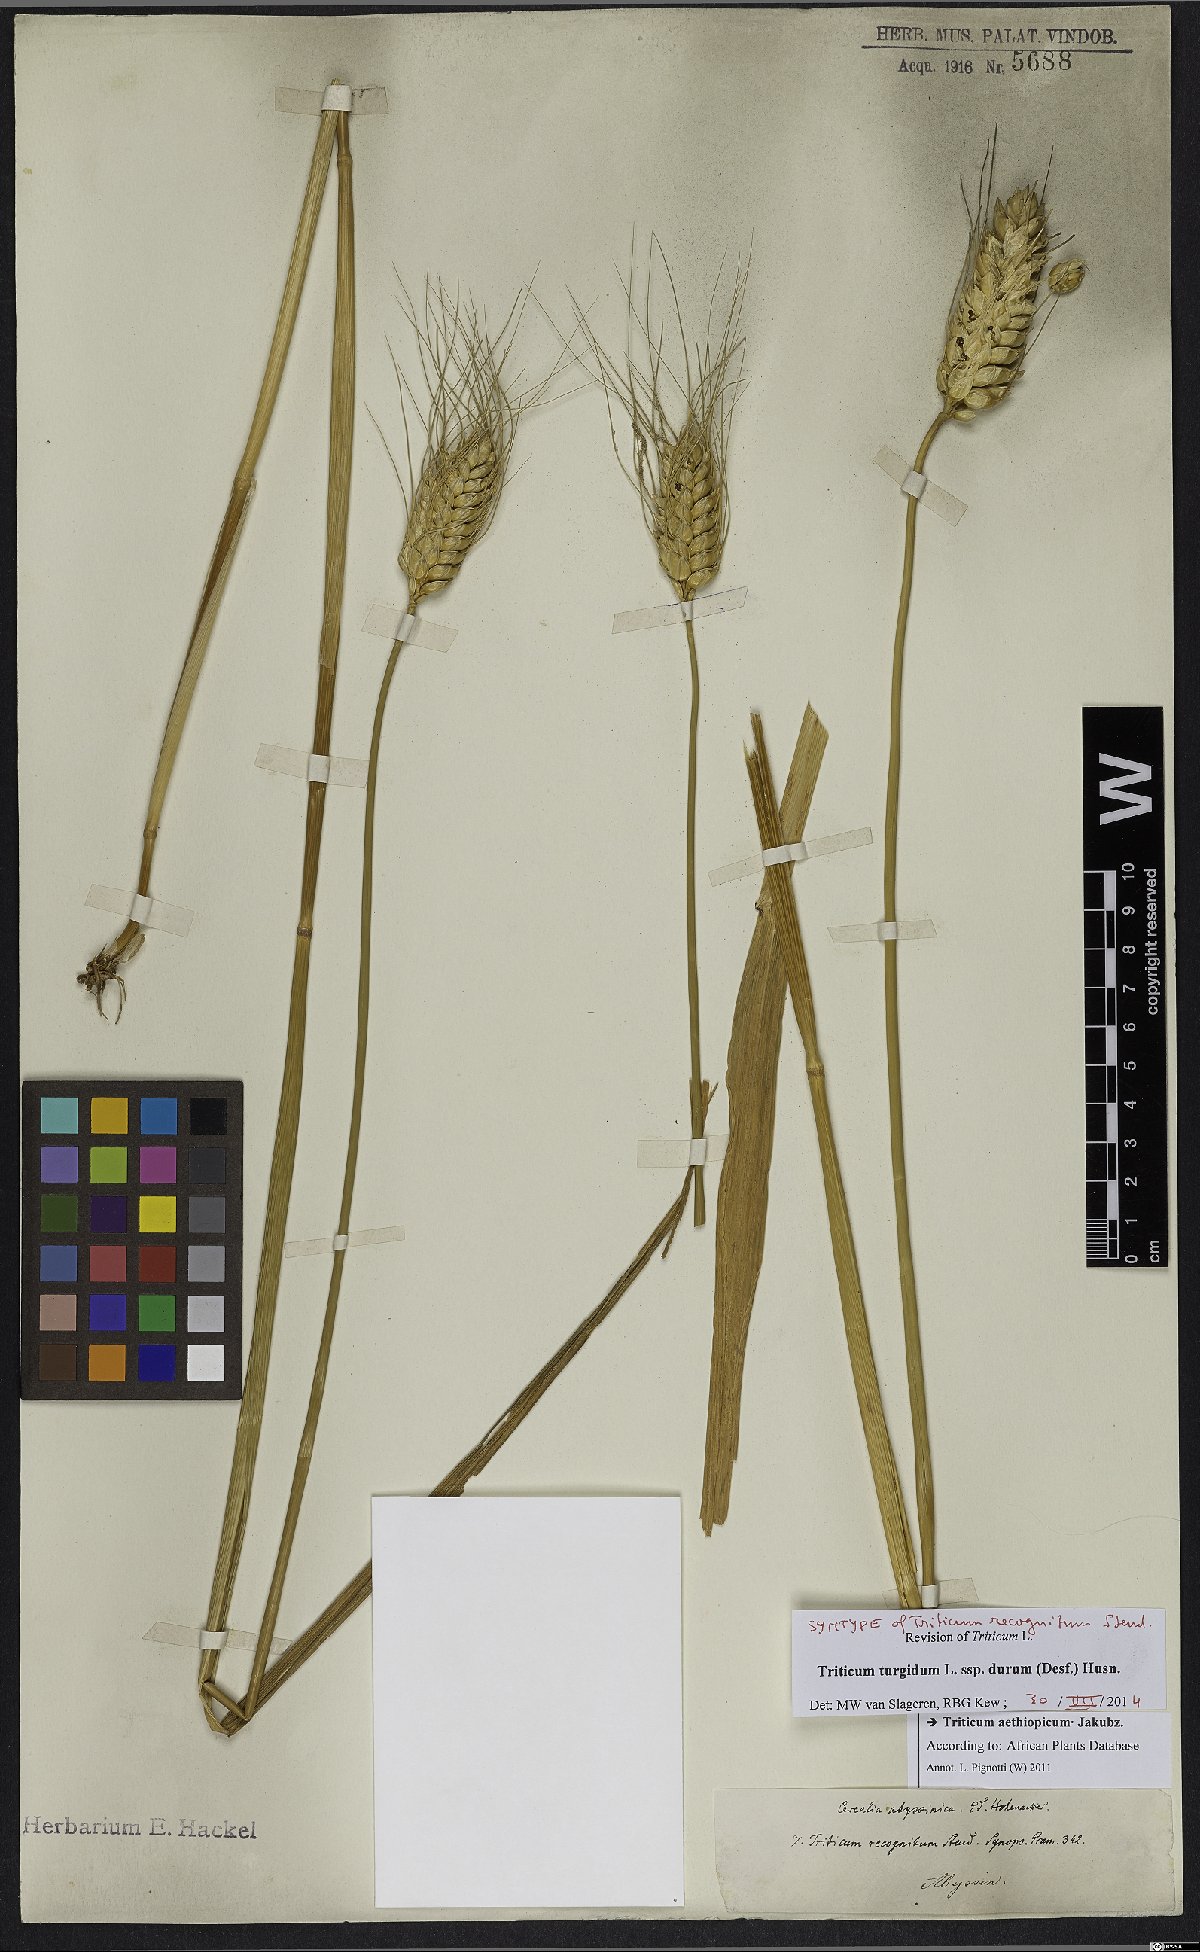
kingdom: Plantae
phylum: Tracheophyta
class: Liliopsida
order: Poales
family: Poaceae
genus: Triticum
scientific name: Triticum turgidum
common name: Rivet wheat
